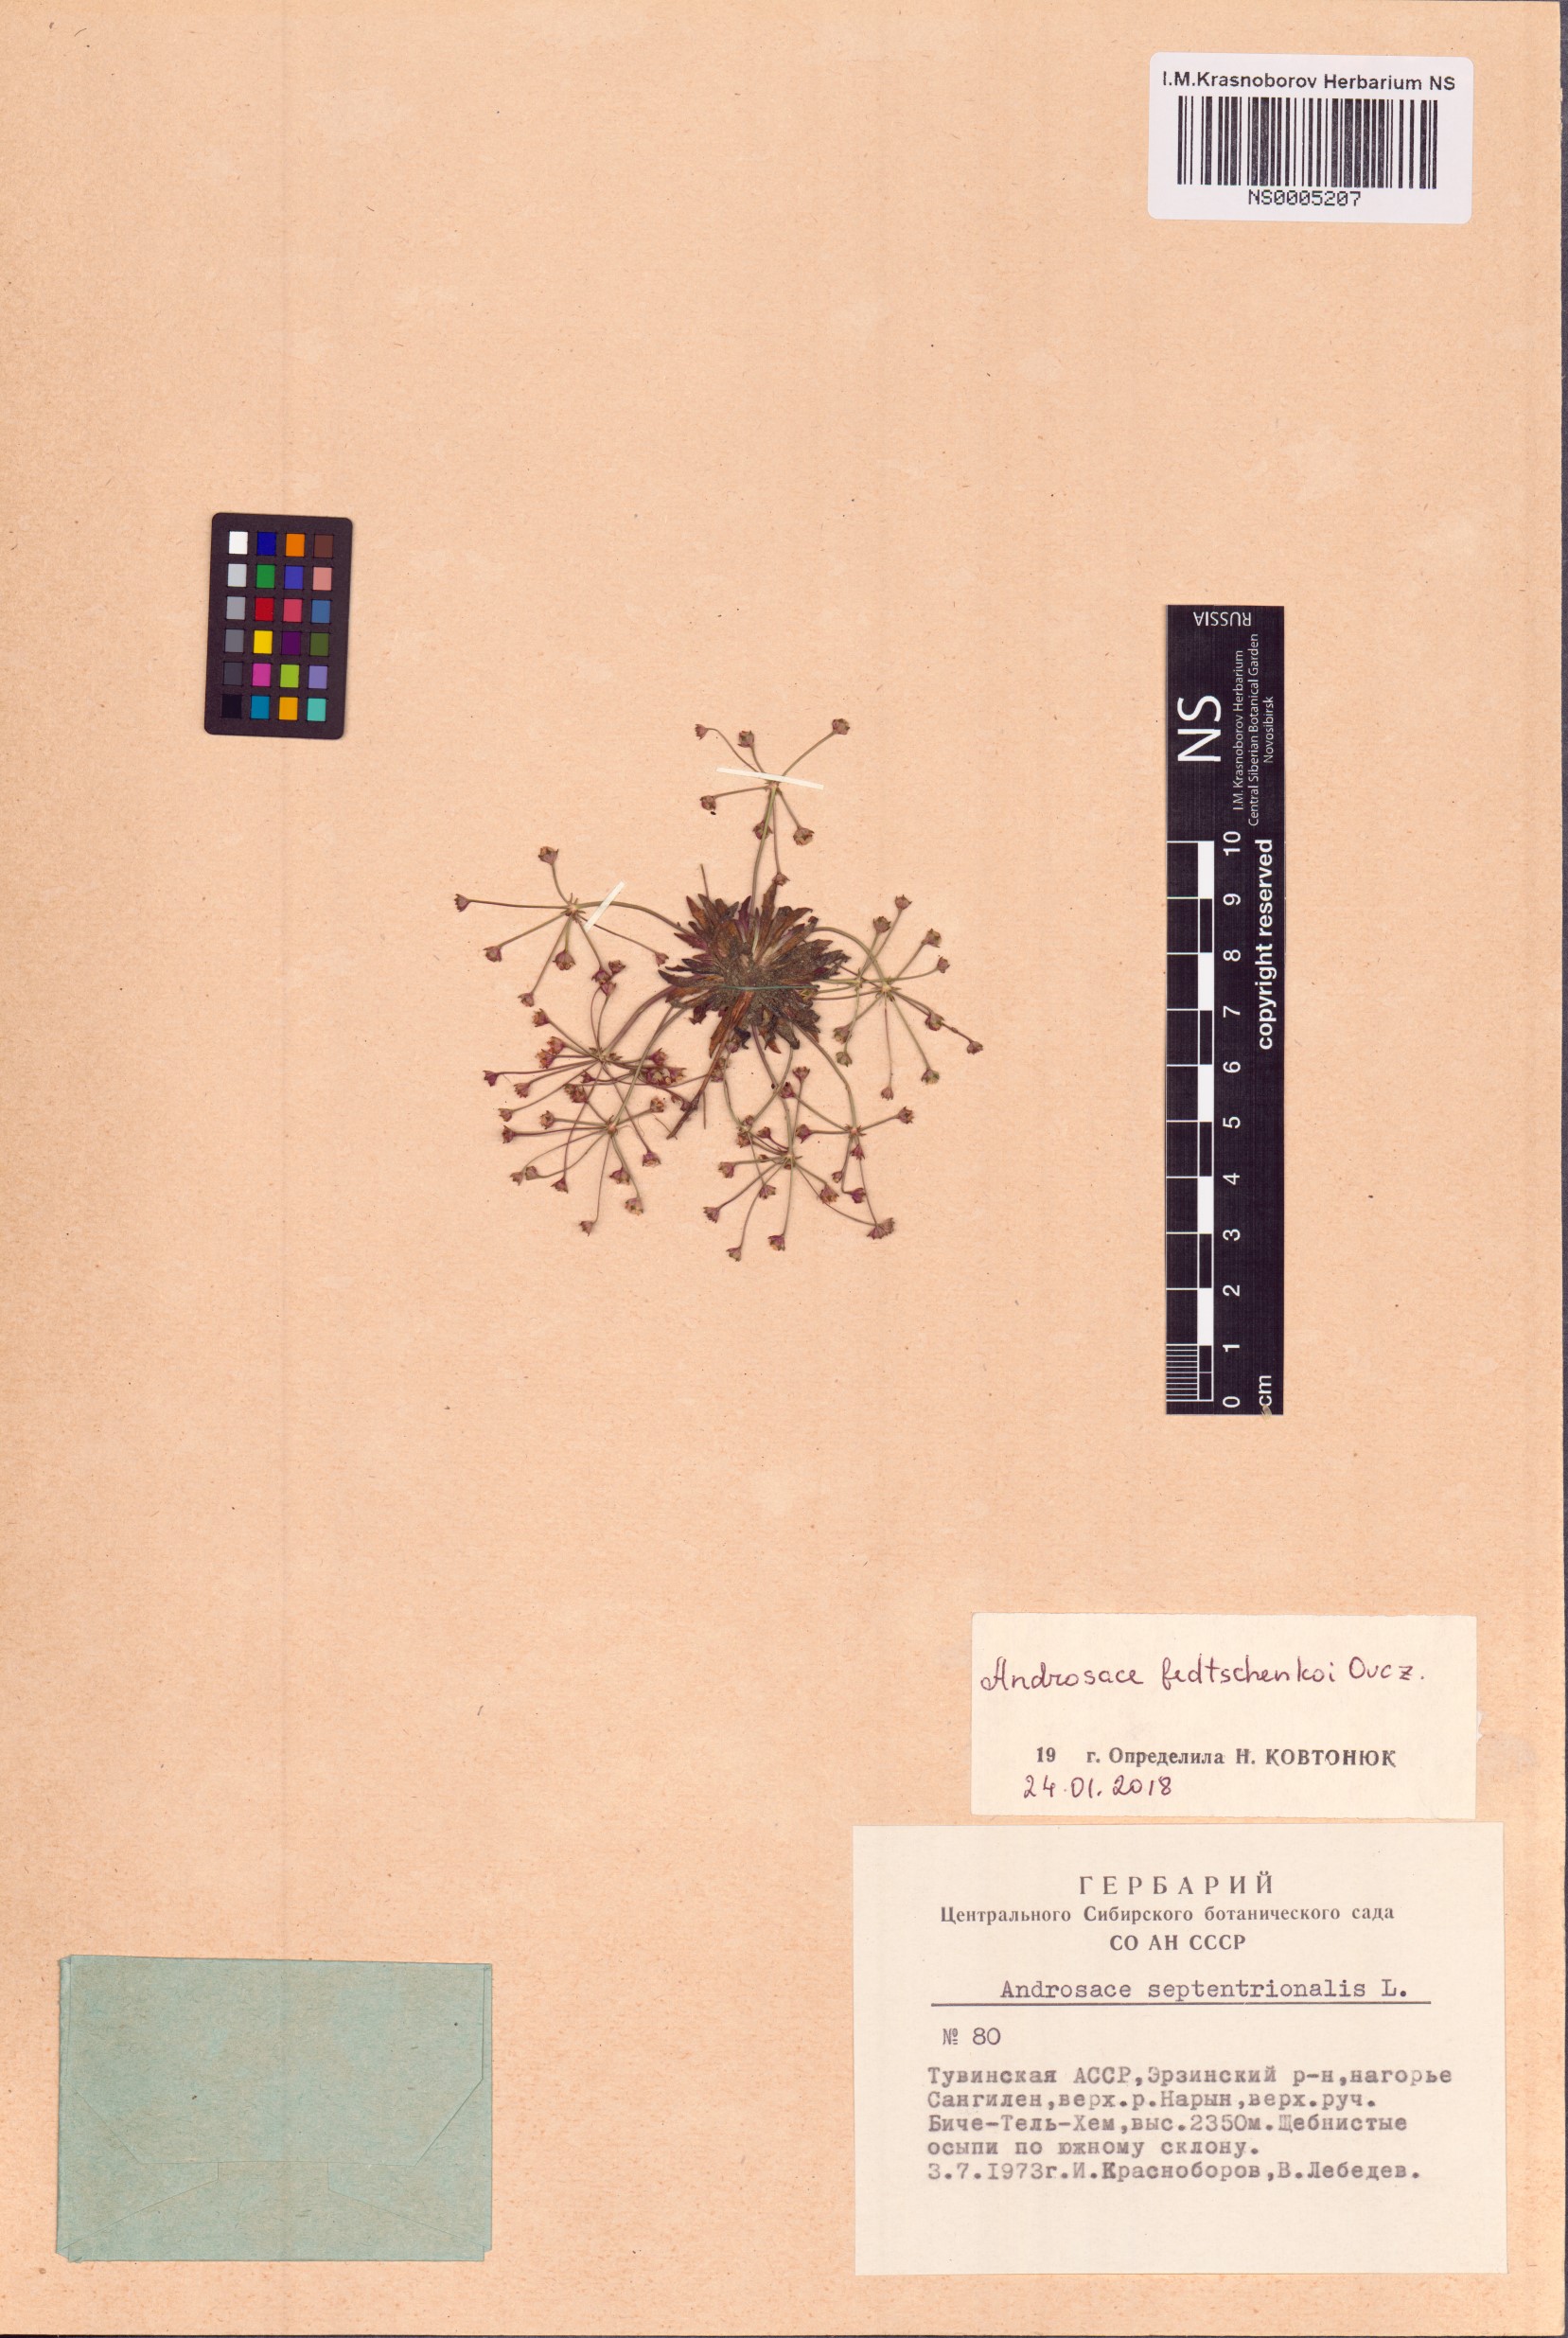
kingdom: Plantae
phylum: Tracheophyta
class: Magnoliopsida
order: Ericales
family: Primulaceae
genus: Androsace
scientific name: Androsace fedtschenkoi
